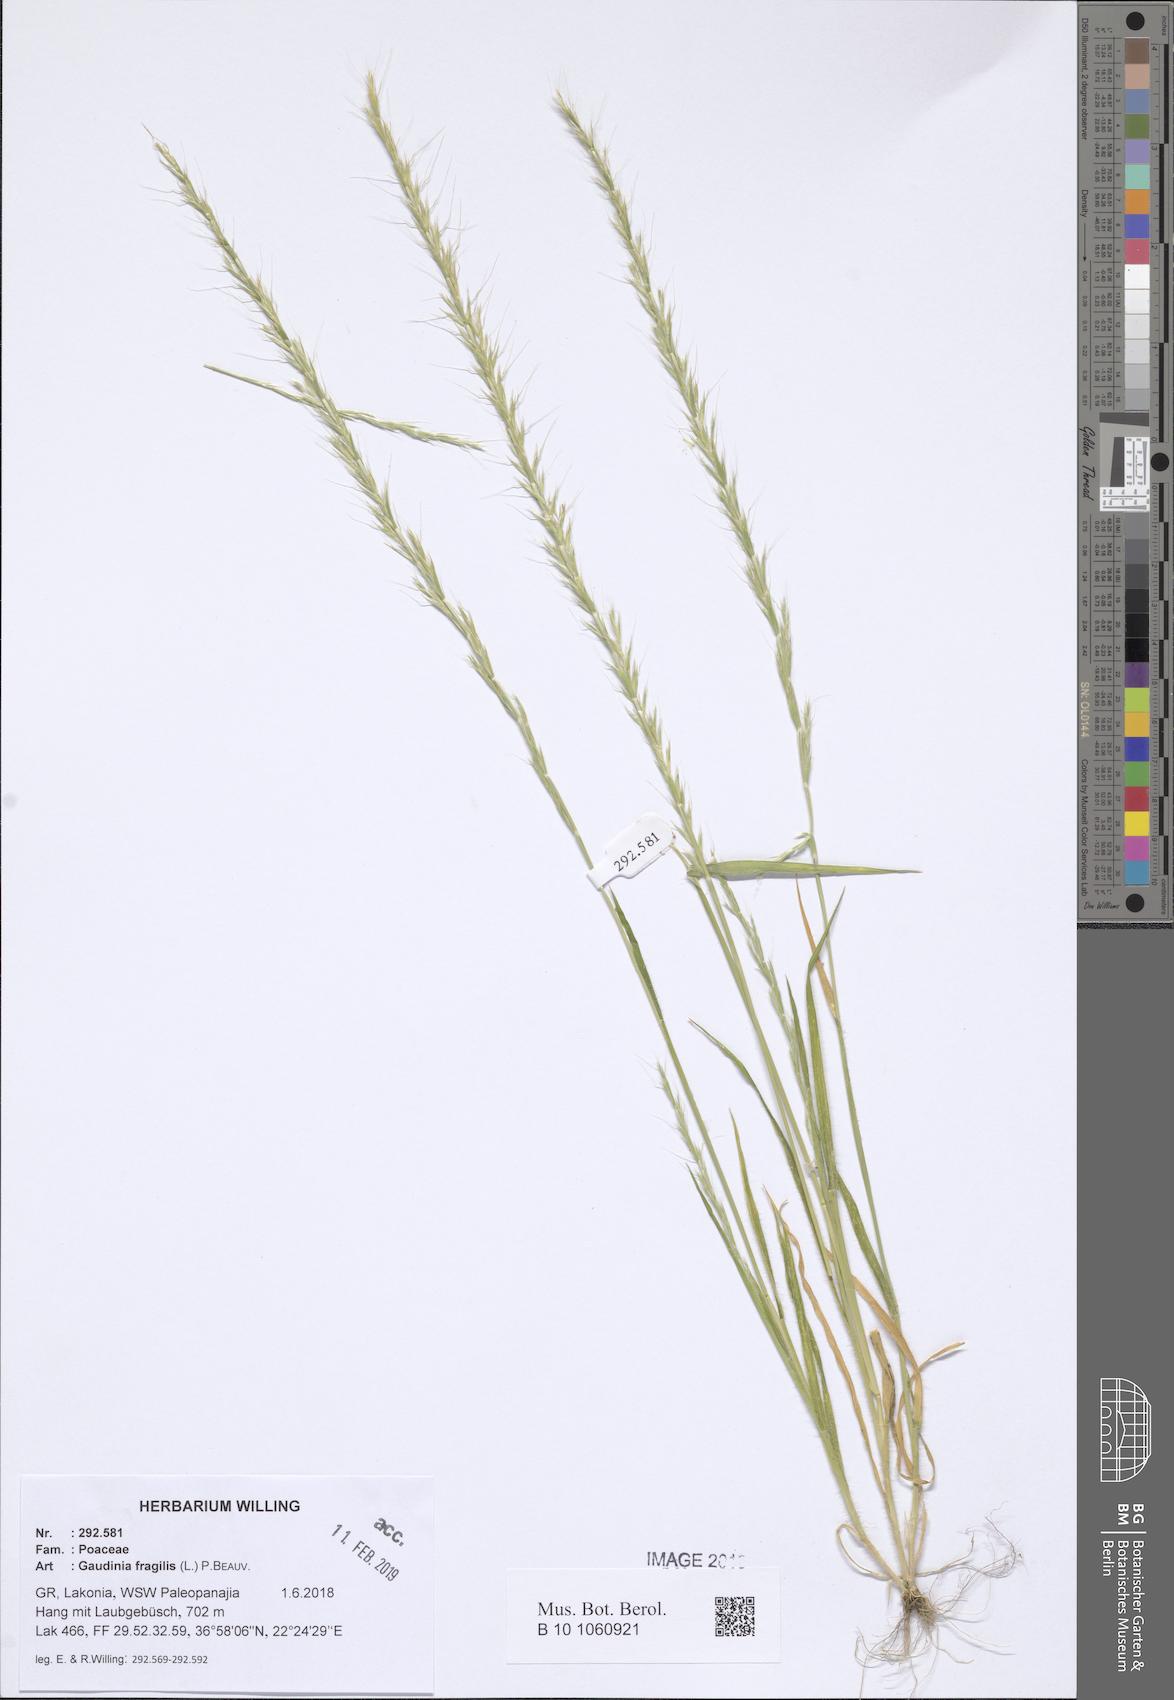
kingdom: Plantae
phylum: Tracheophyta
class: Liliopsida
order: Poales
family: Poaceae
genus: Gaudinia
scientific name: Gaudinia fragilis
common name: French oat-grass
